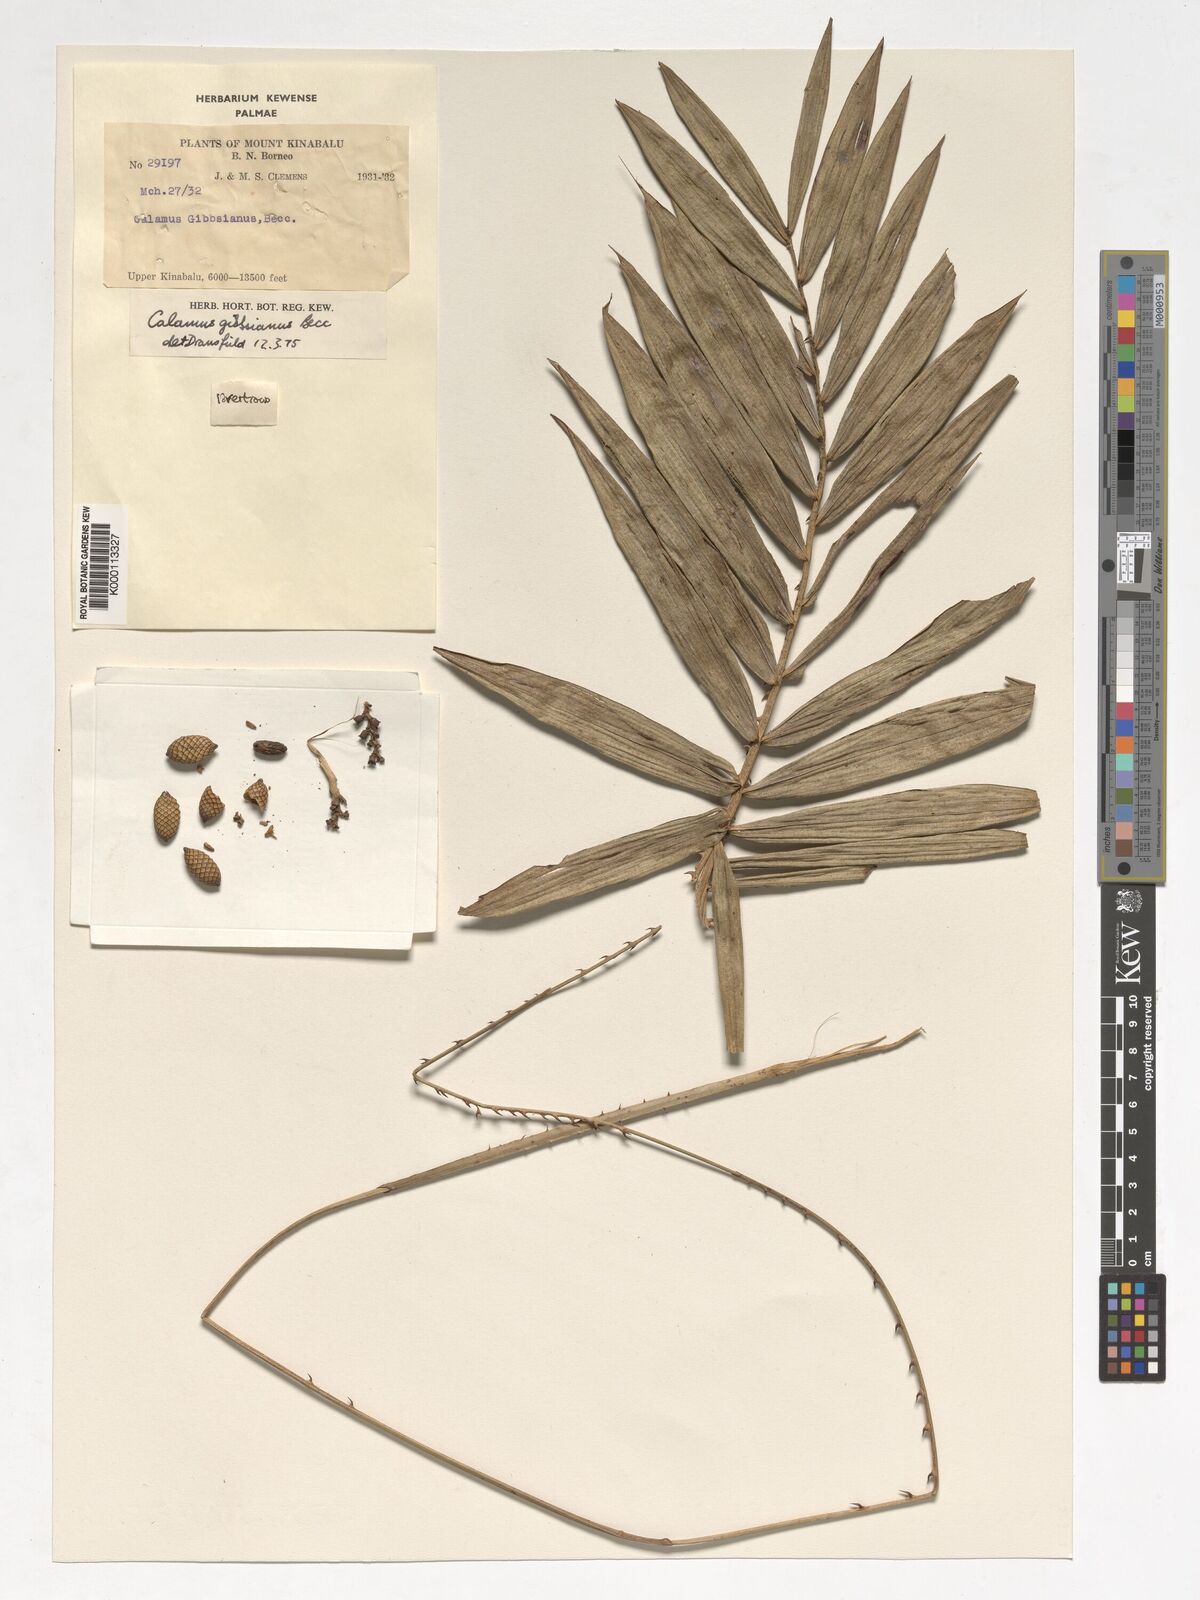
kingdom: Plantae
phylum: Tracheophyta
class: Liliopsida
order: Arecales
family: Arecaceae
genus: Calamus
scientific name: Calamus gibbsianus
